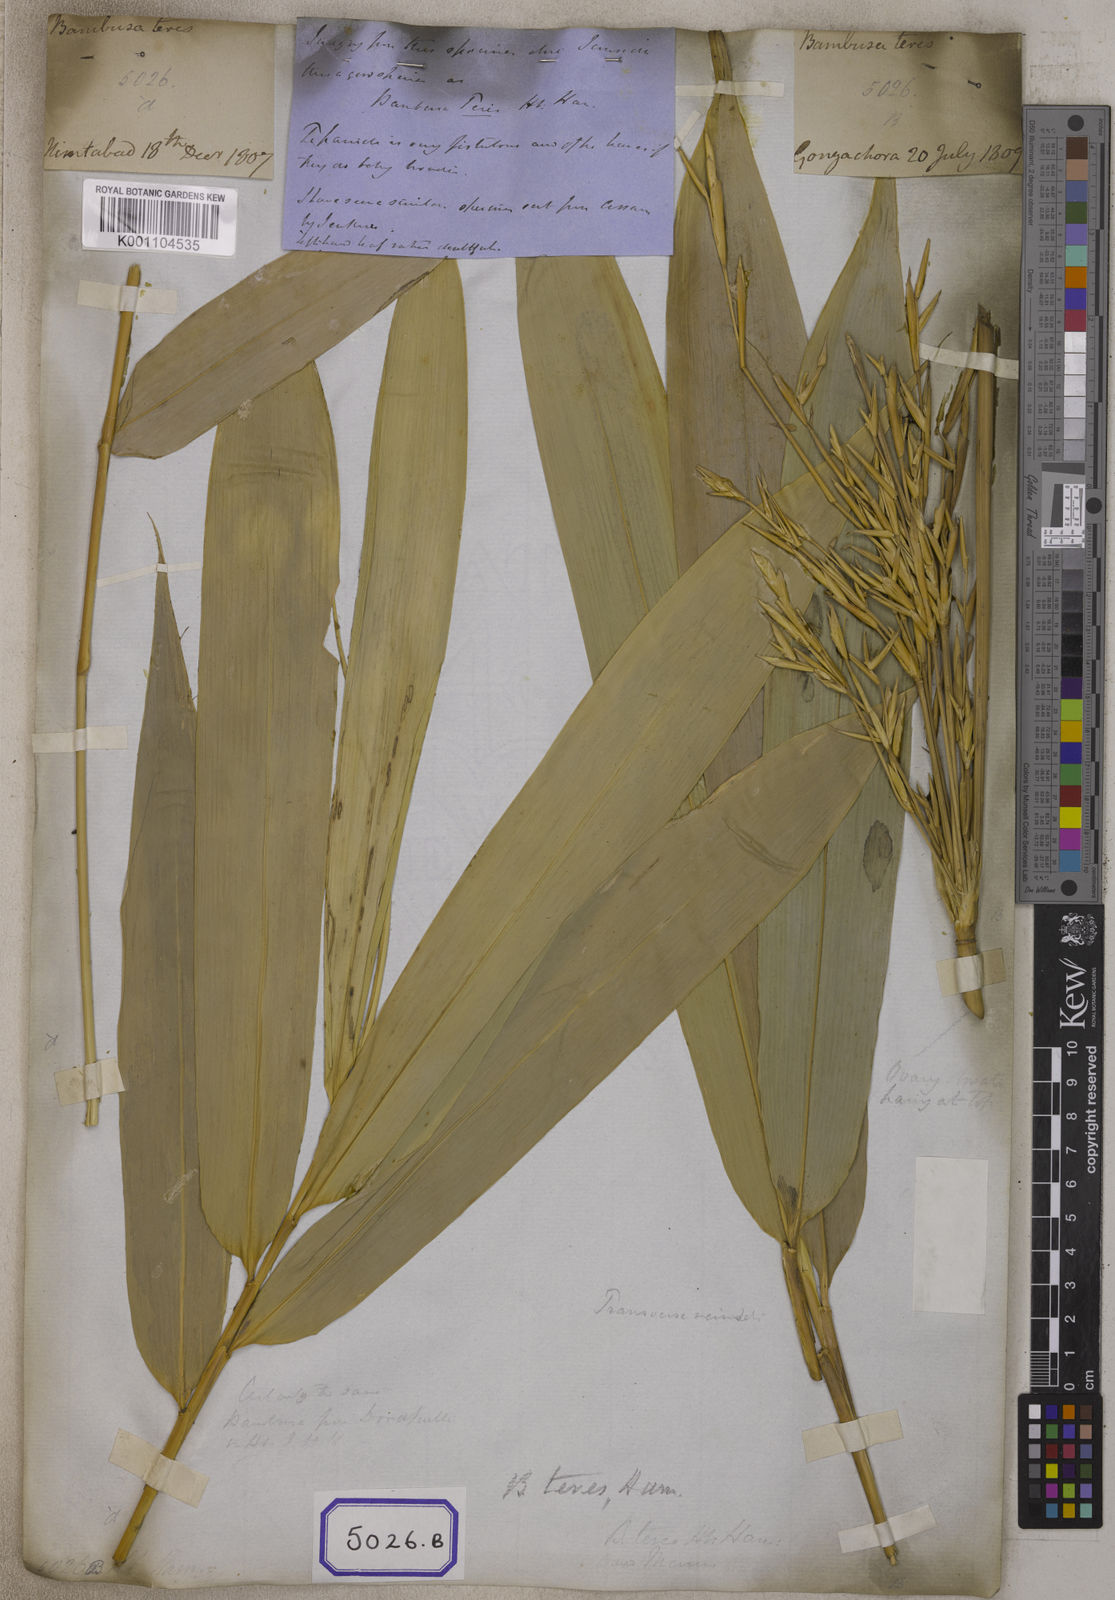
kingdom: Plantae
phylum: Tracheophyta
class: Liliopsida
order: Poales
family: Poaceae
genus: Bambusa
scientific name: Bambusa
